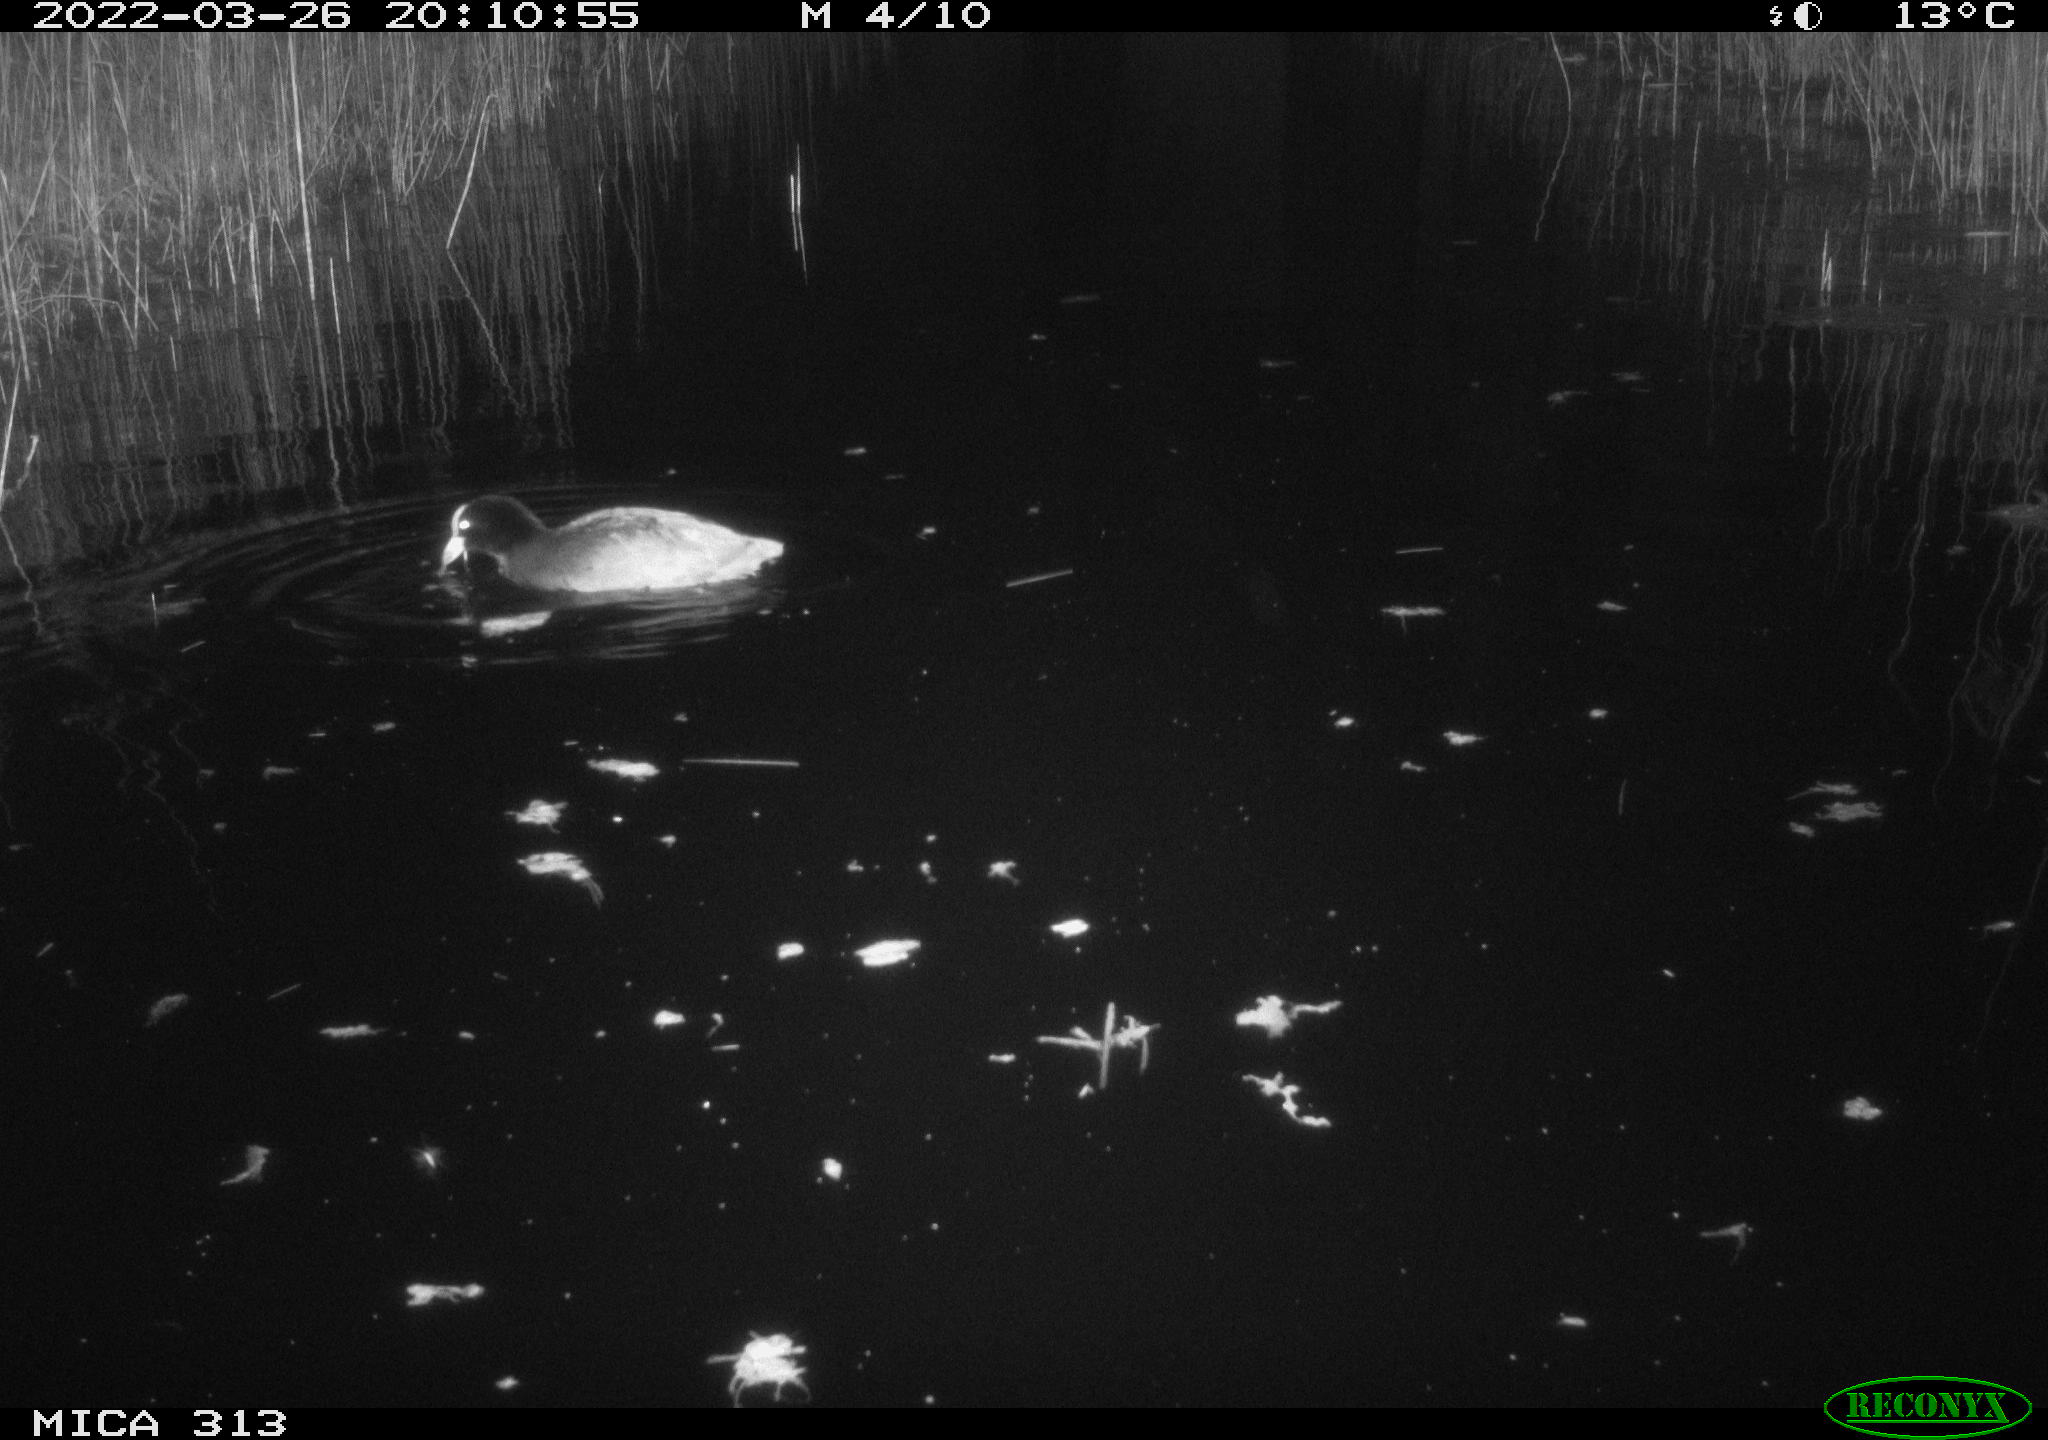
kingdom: Animalia
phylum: Chordata
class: Aves
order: Gruiformes
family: Rallidae
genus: Fulica
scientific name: Fulica atra
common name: Eurasian coot
